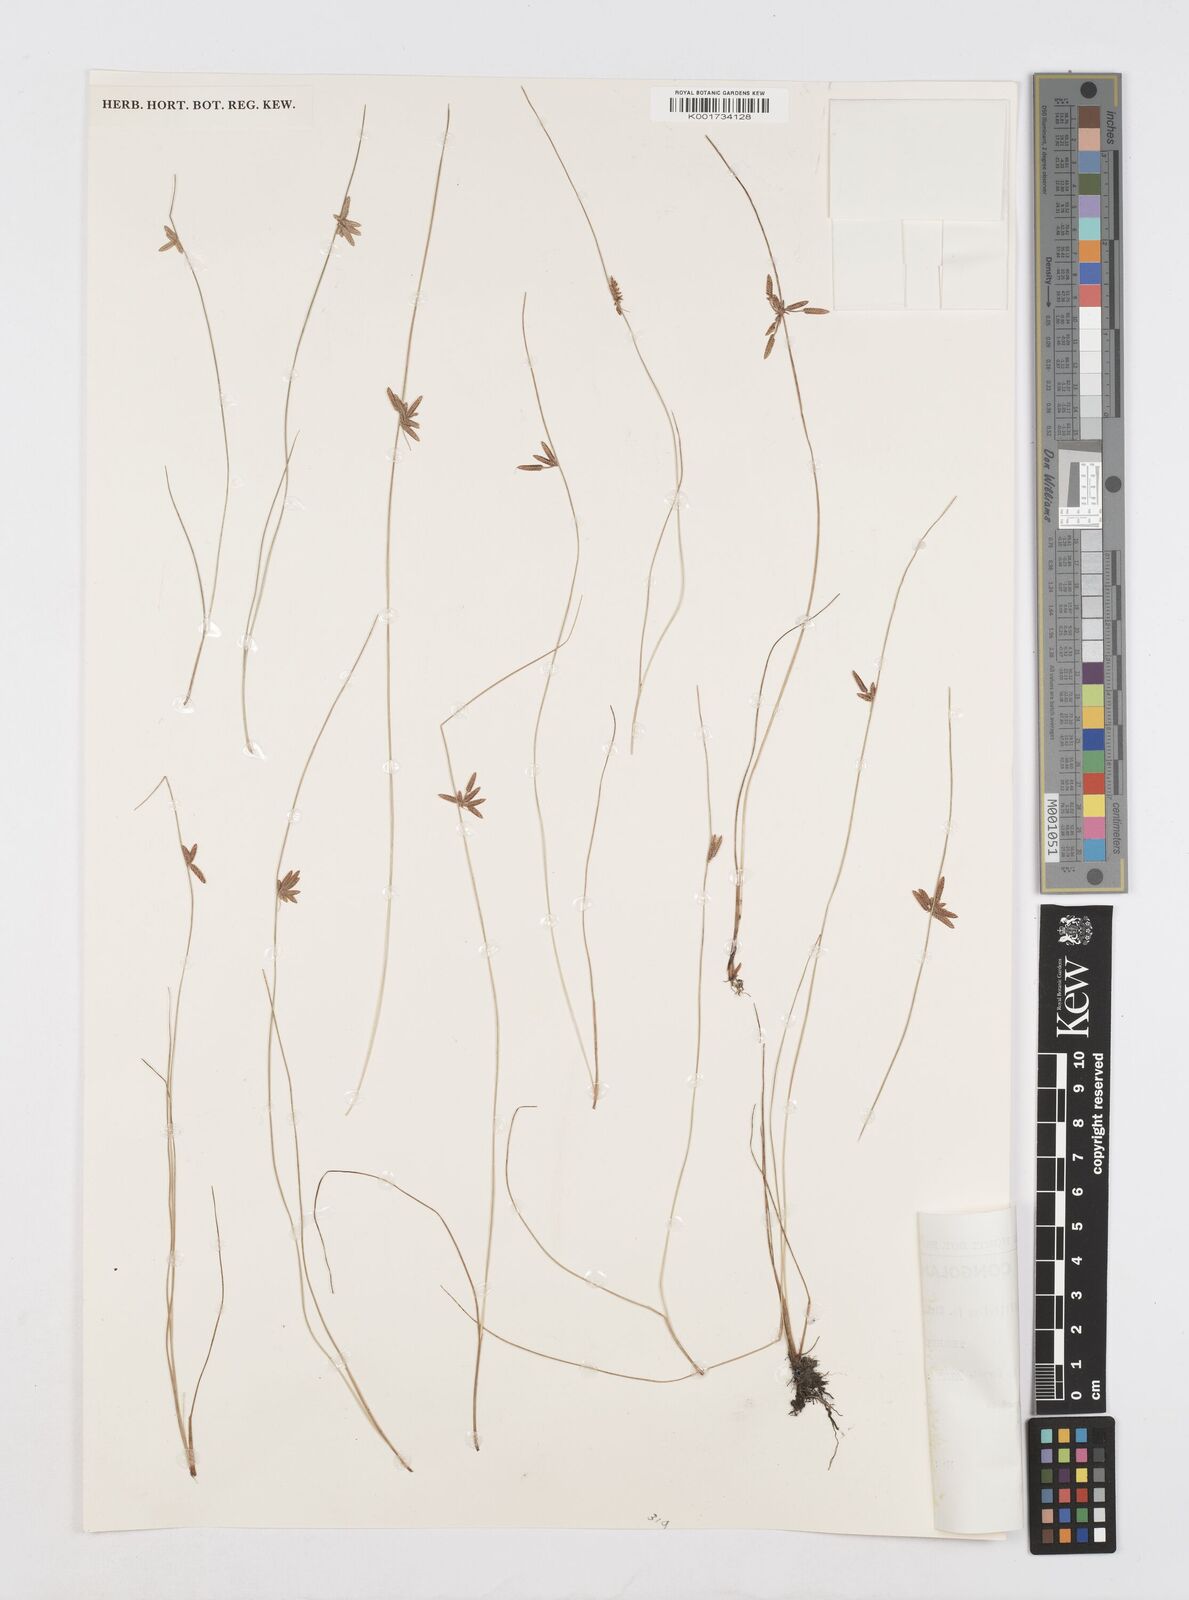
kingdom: Plantae
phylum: Tracheophyta
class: Liliopsida
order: Poales
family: Cyperaceae
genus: Cyperus
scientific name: Cyperus capillifolius
